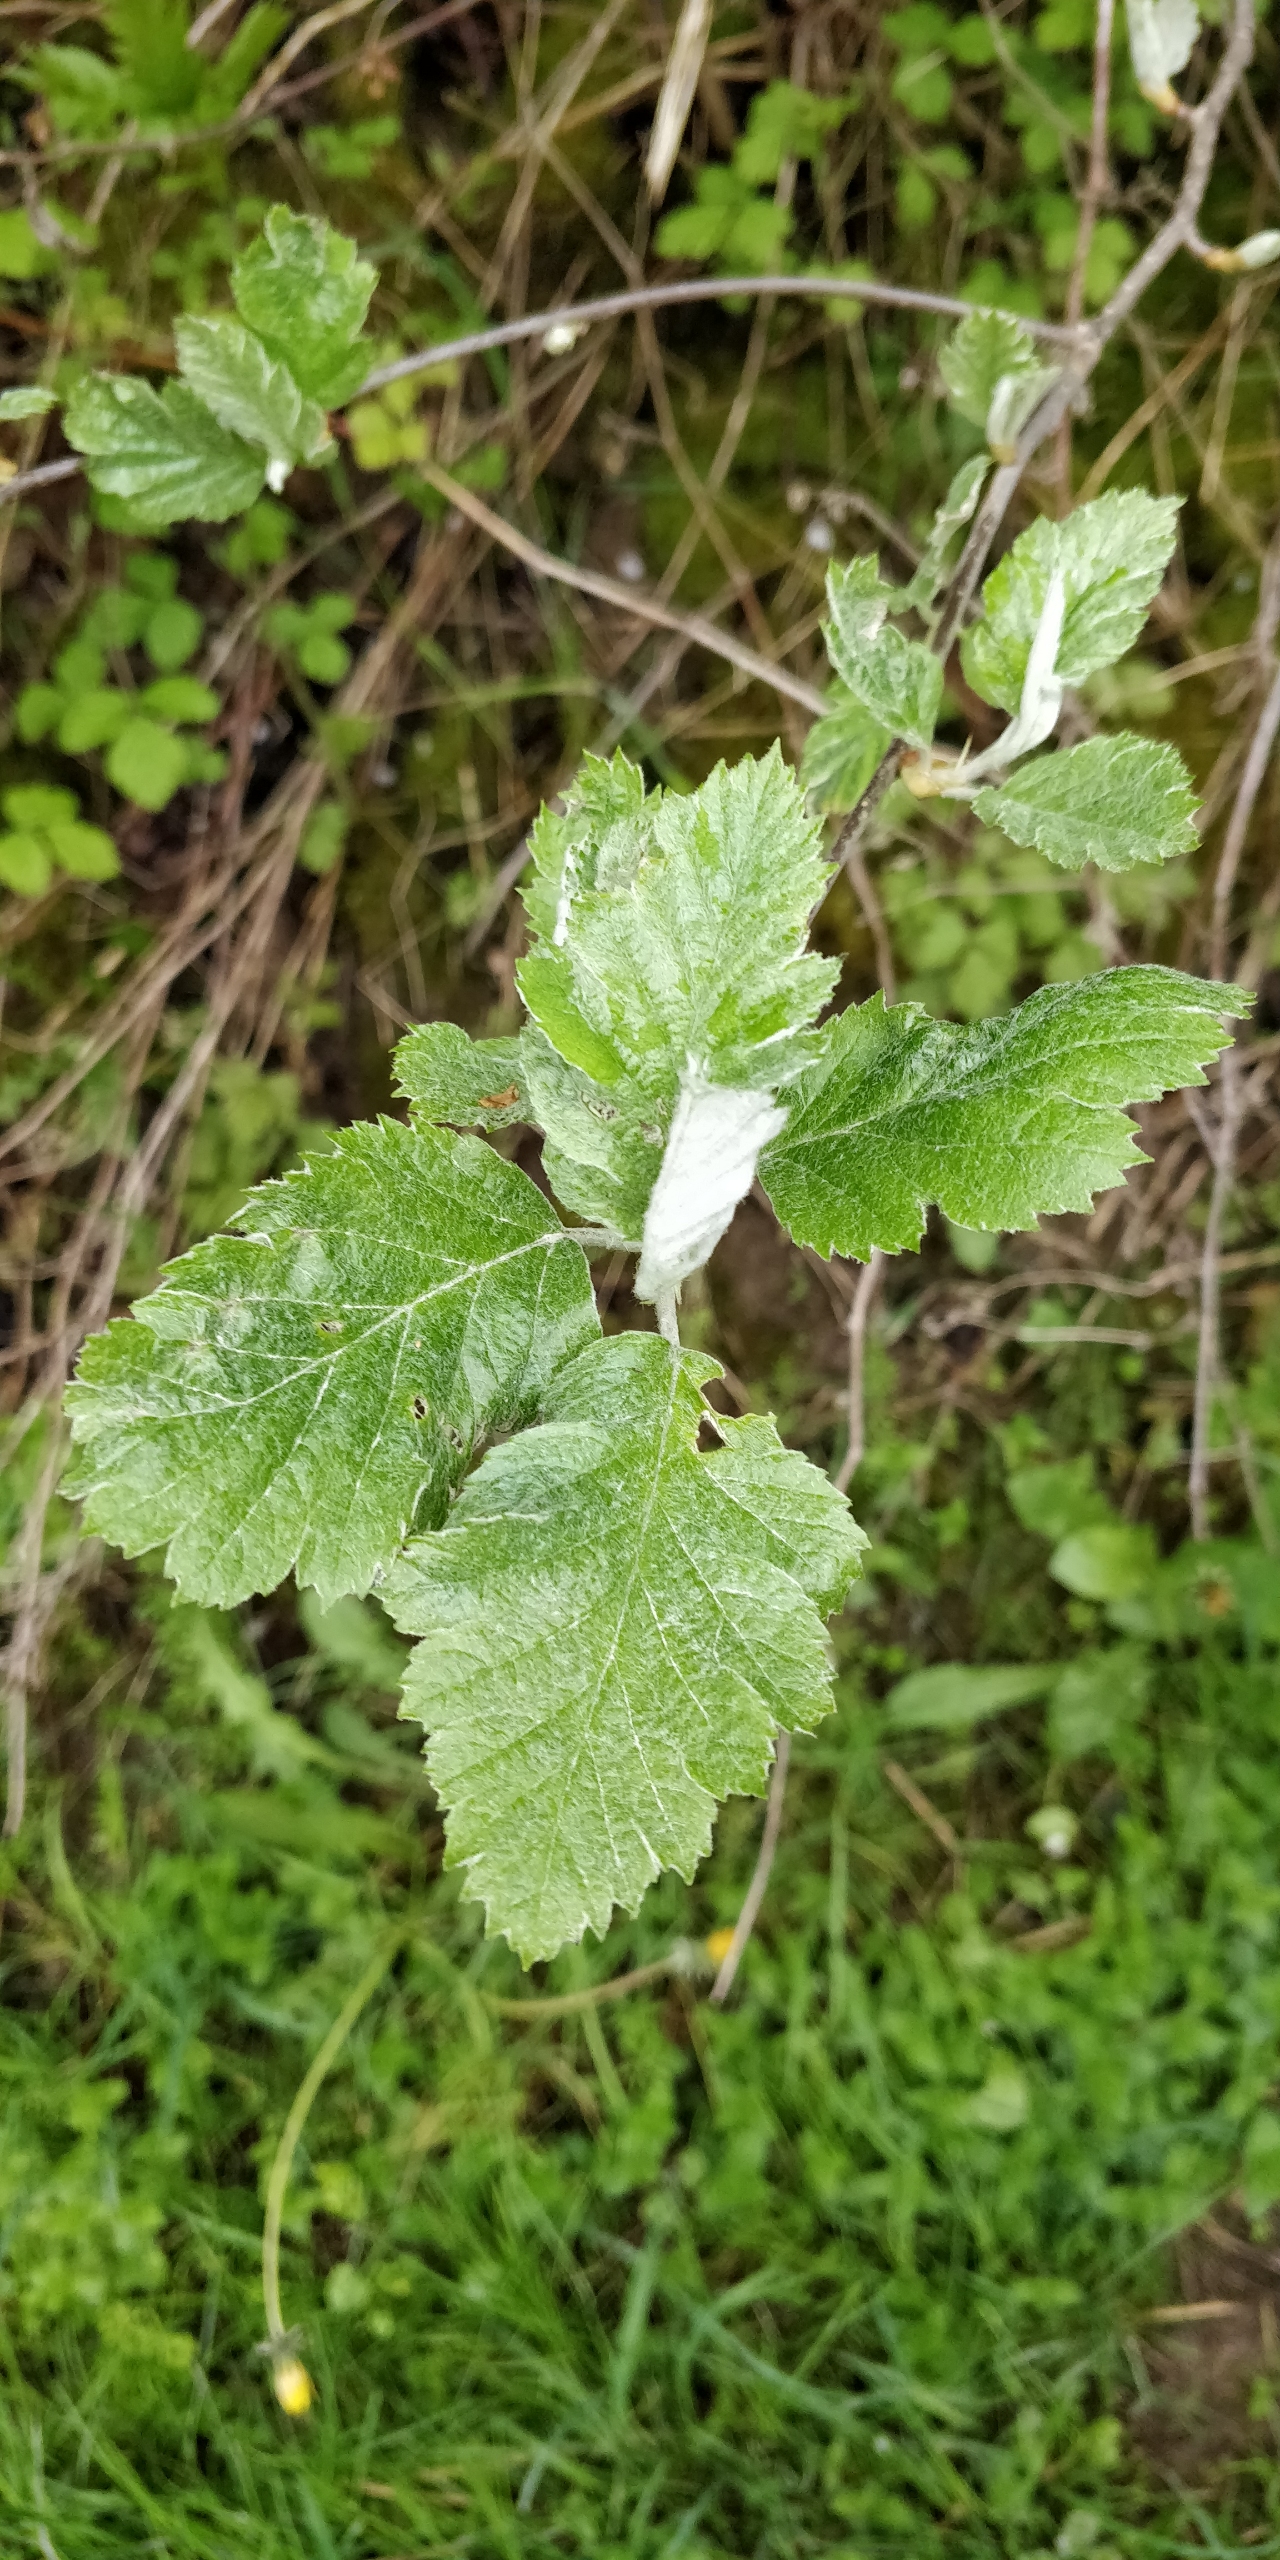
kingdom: Plantae
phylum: Tracheophyta
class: Magnoliopsida
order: Rosales
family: Rosaceae
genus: Scandosorbus
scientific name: Scandosorbus intermedia
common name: Selje-røn
